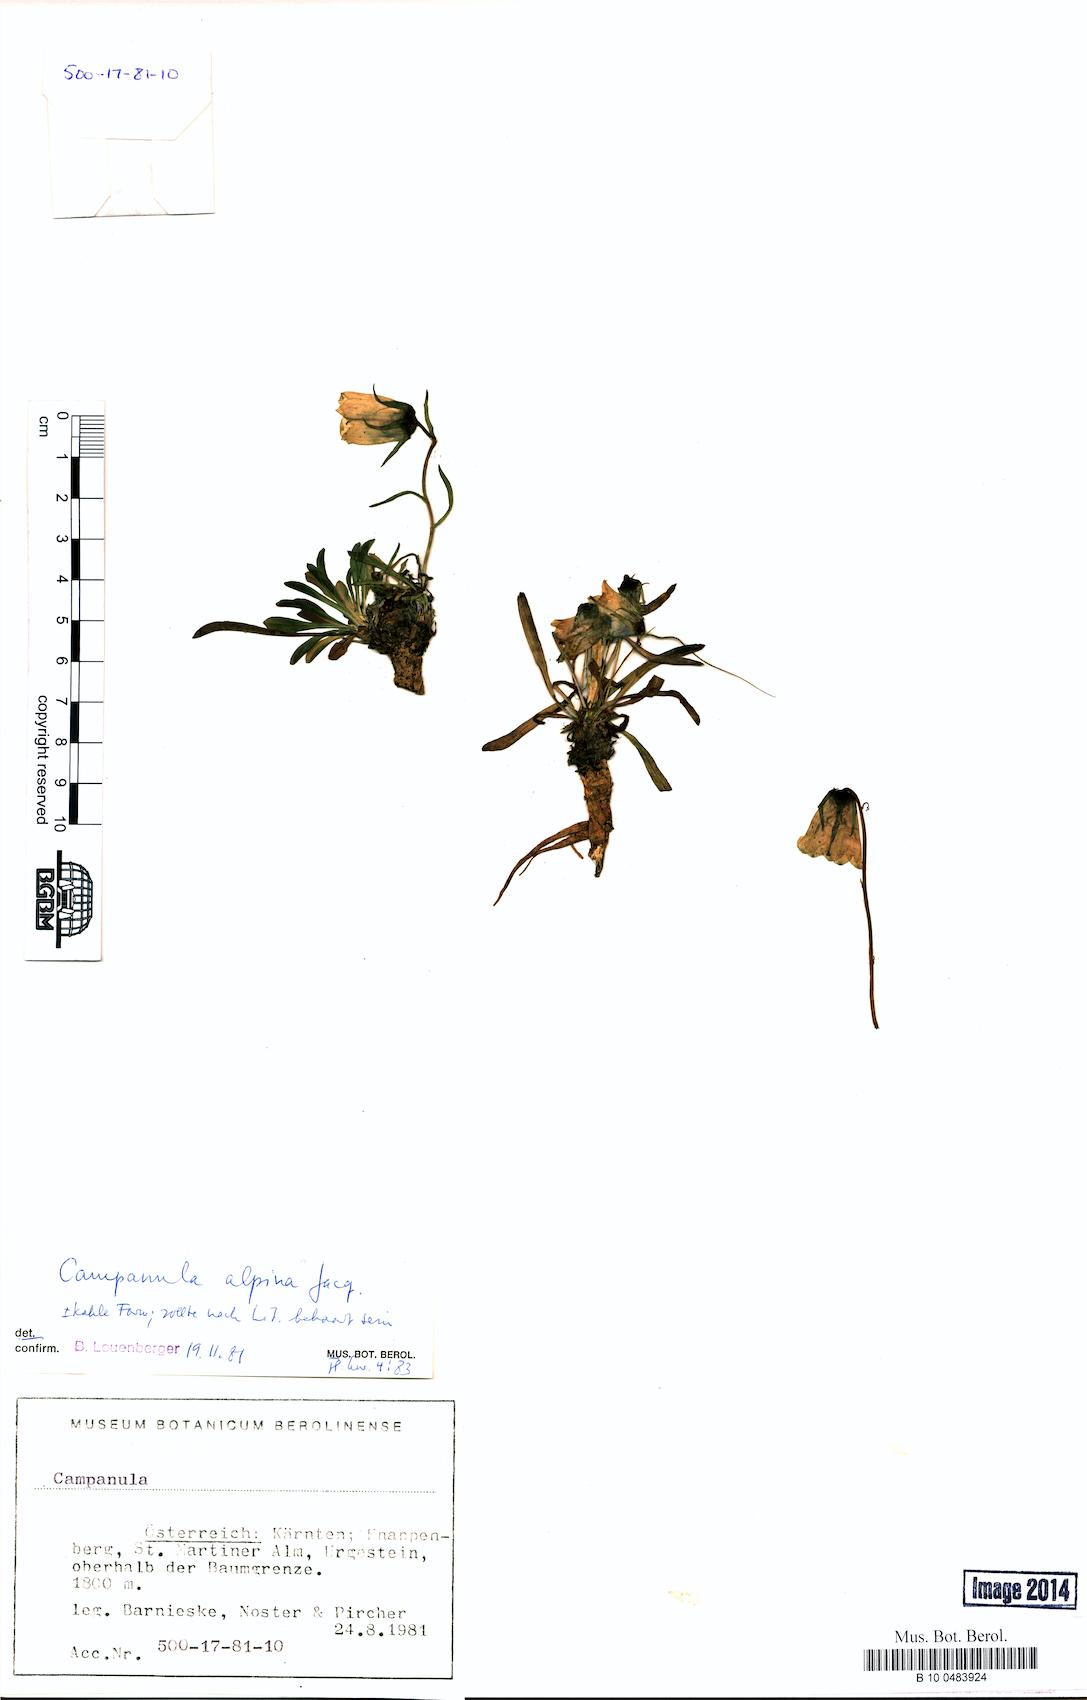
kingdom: Plantae
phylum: Tracheophyta
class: Magnoliopsida
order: Asterales
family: Campanulaceae
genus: Campanula
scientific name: Campanula alpina
